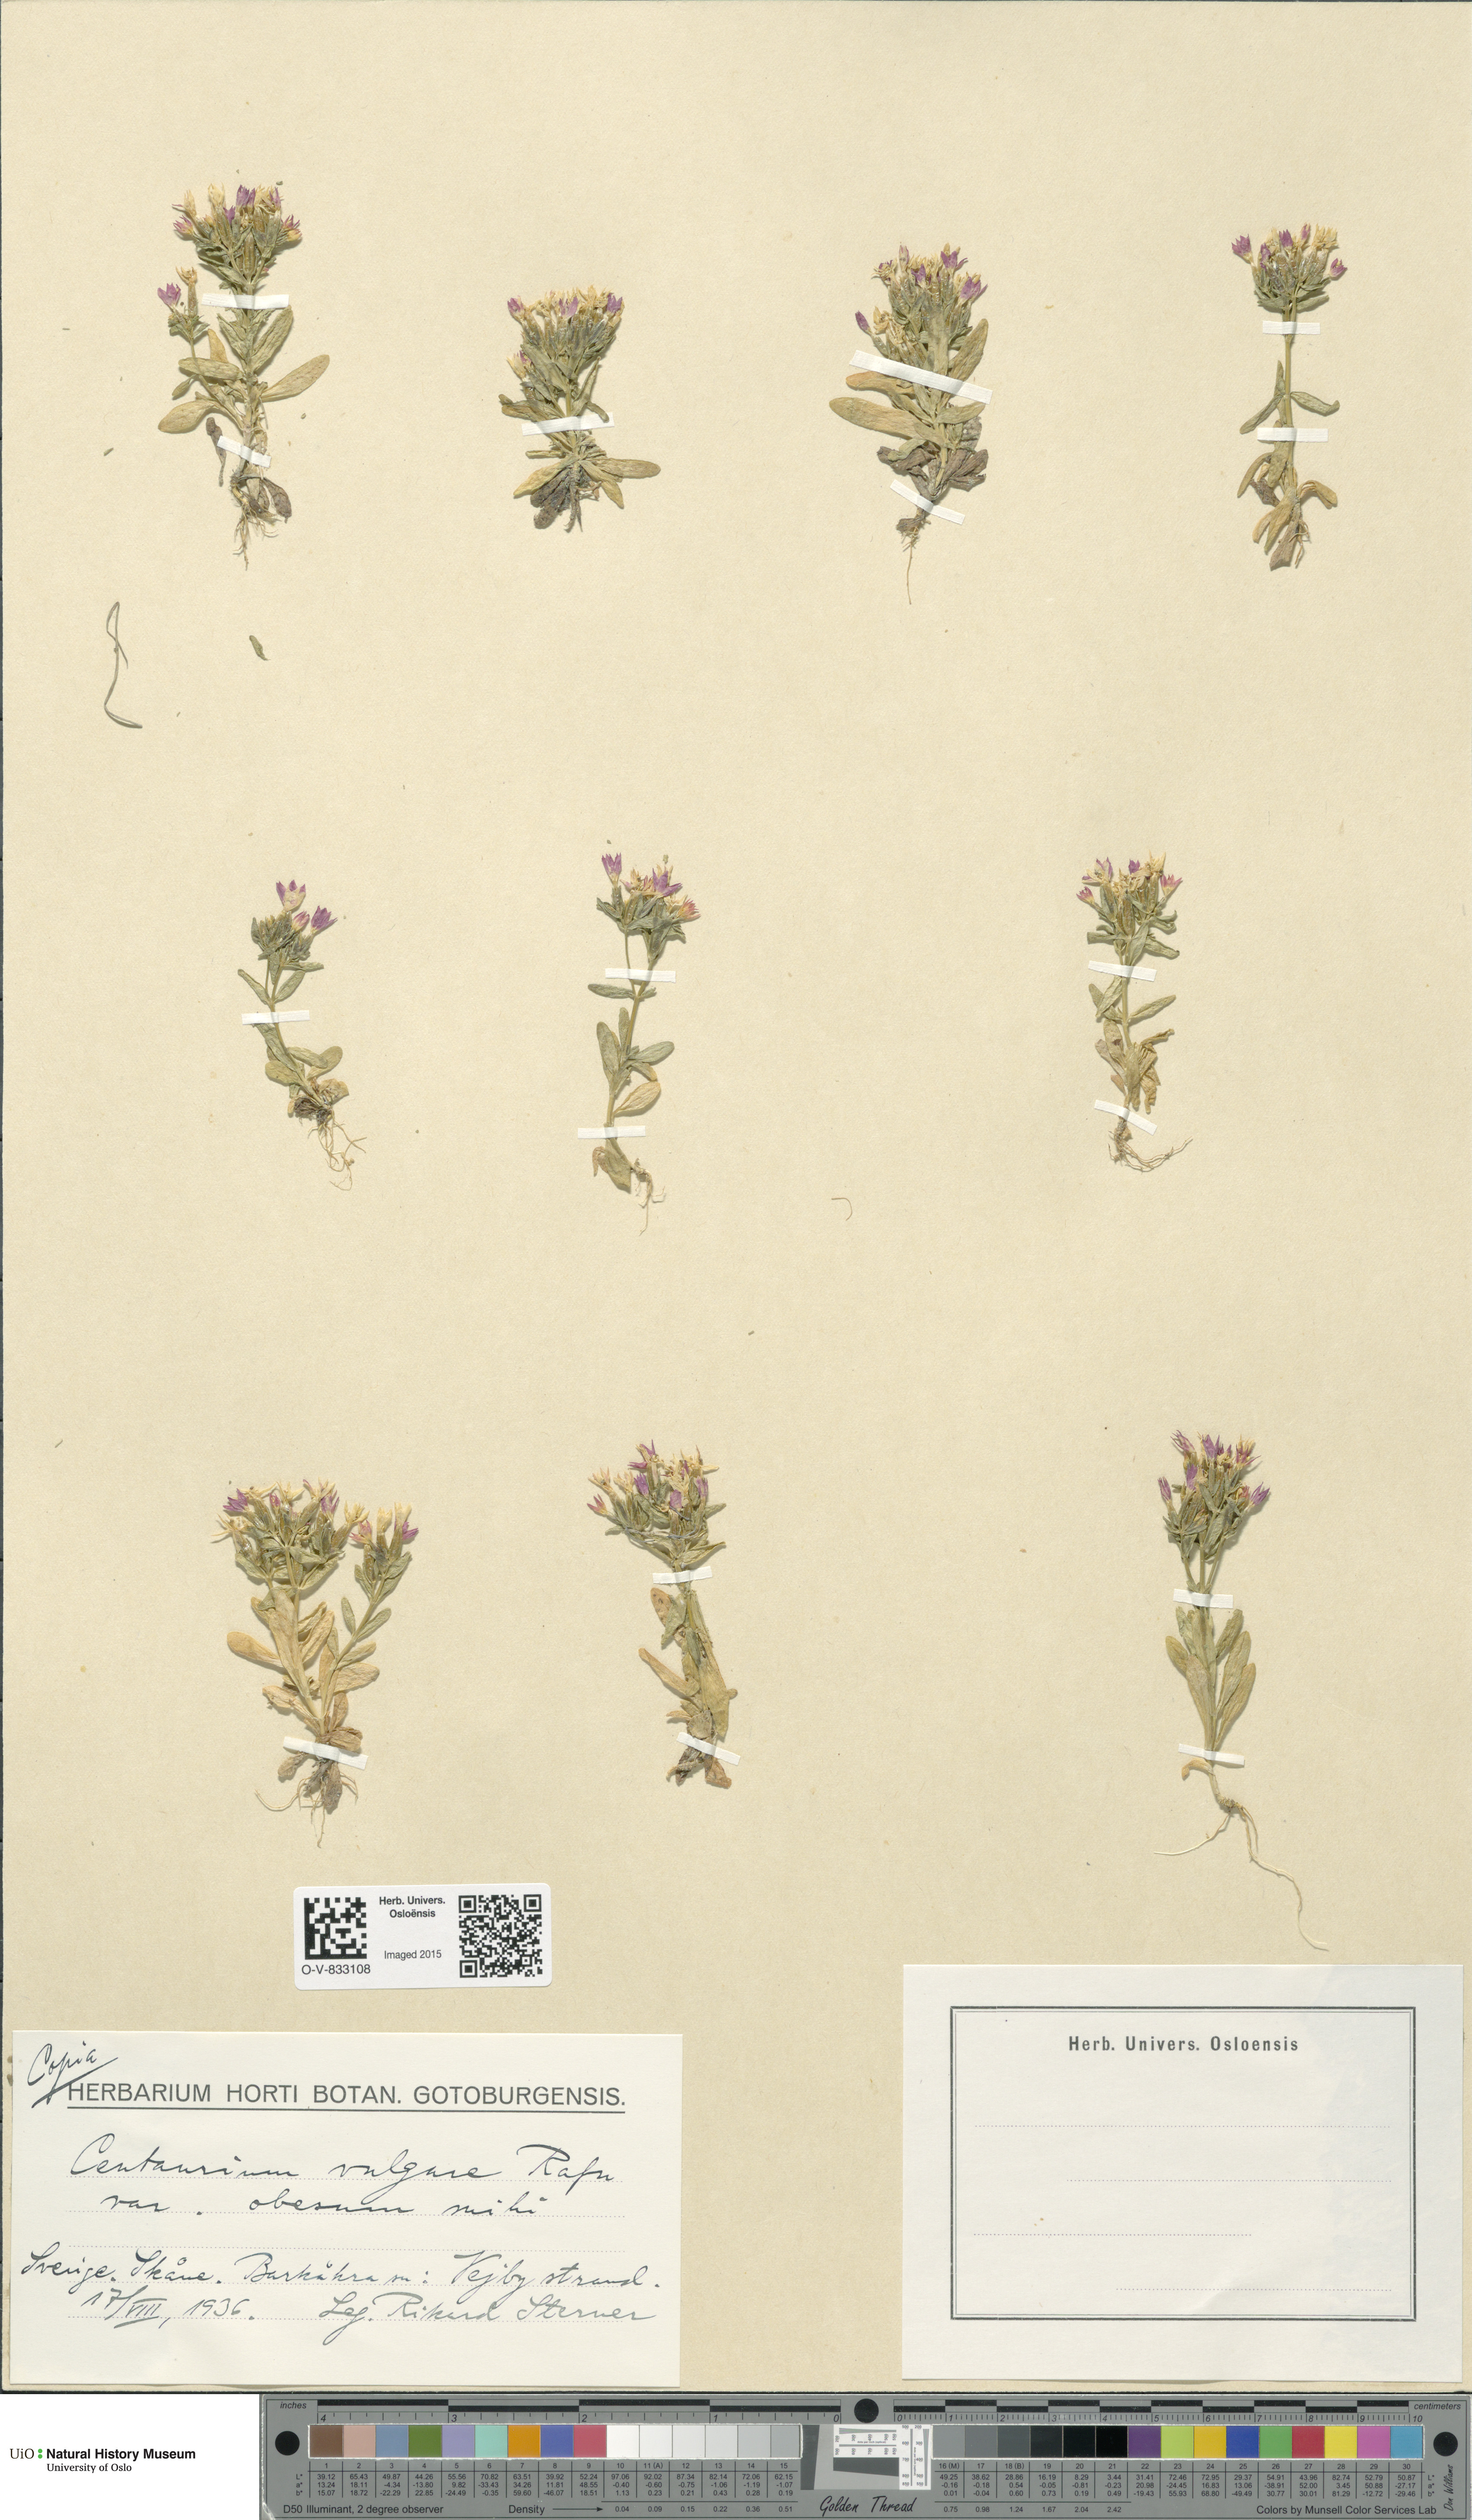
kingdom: Plantae
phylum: Tracheophyta
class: Magnoliopsida
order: Gentianales
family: Gentianaceae
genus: Centaurium
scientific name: Centaurium littorale
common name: Seaside centaury
